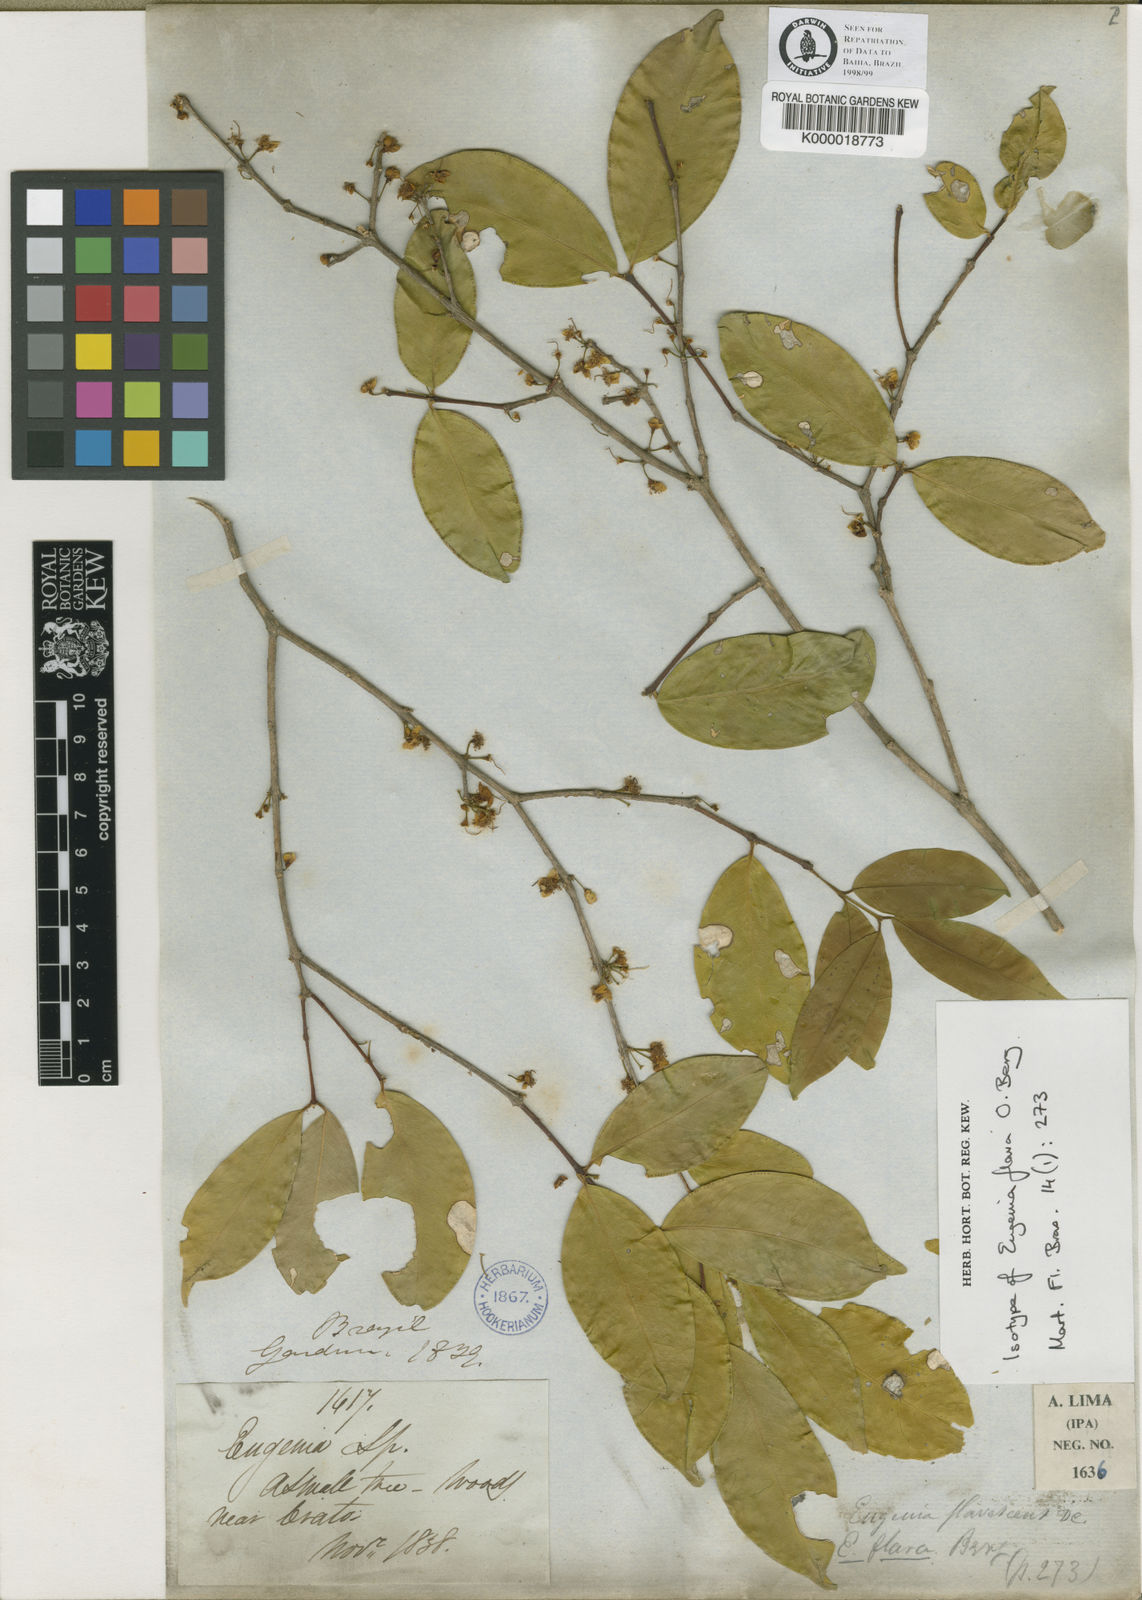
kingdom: Plantae
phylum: Tracheophyta
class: Magnoliopsida
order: Myrtales
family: Myrtaceae
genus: Eugenia
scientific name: Eugenia punicifolia
